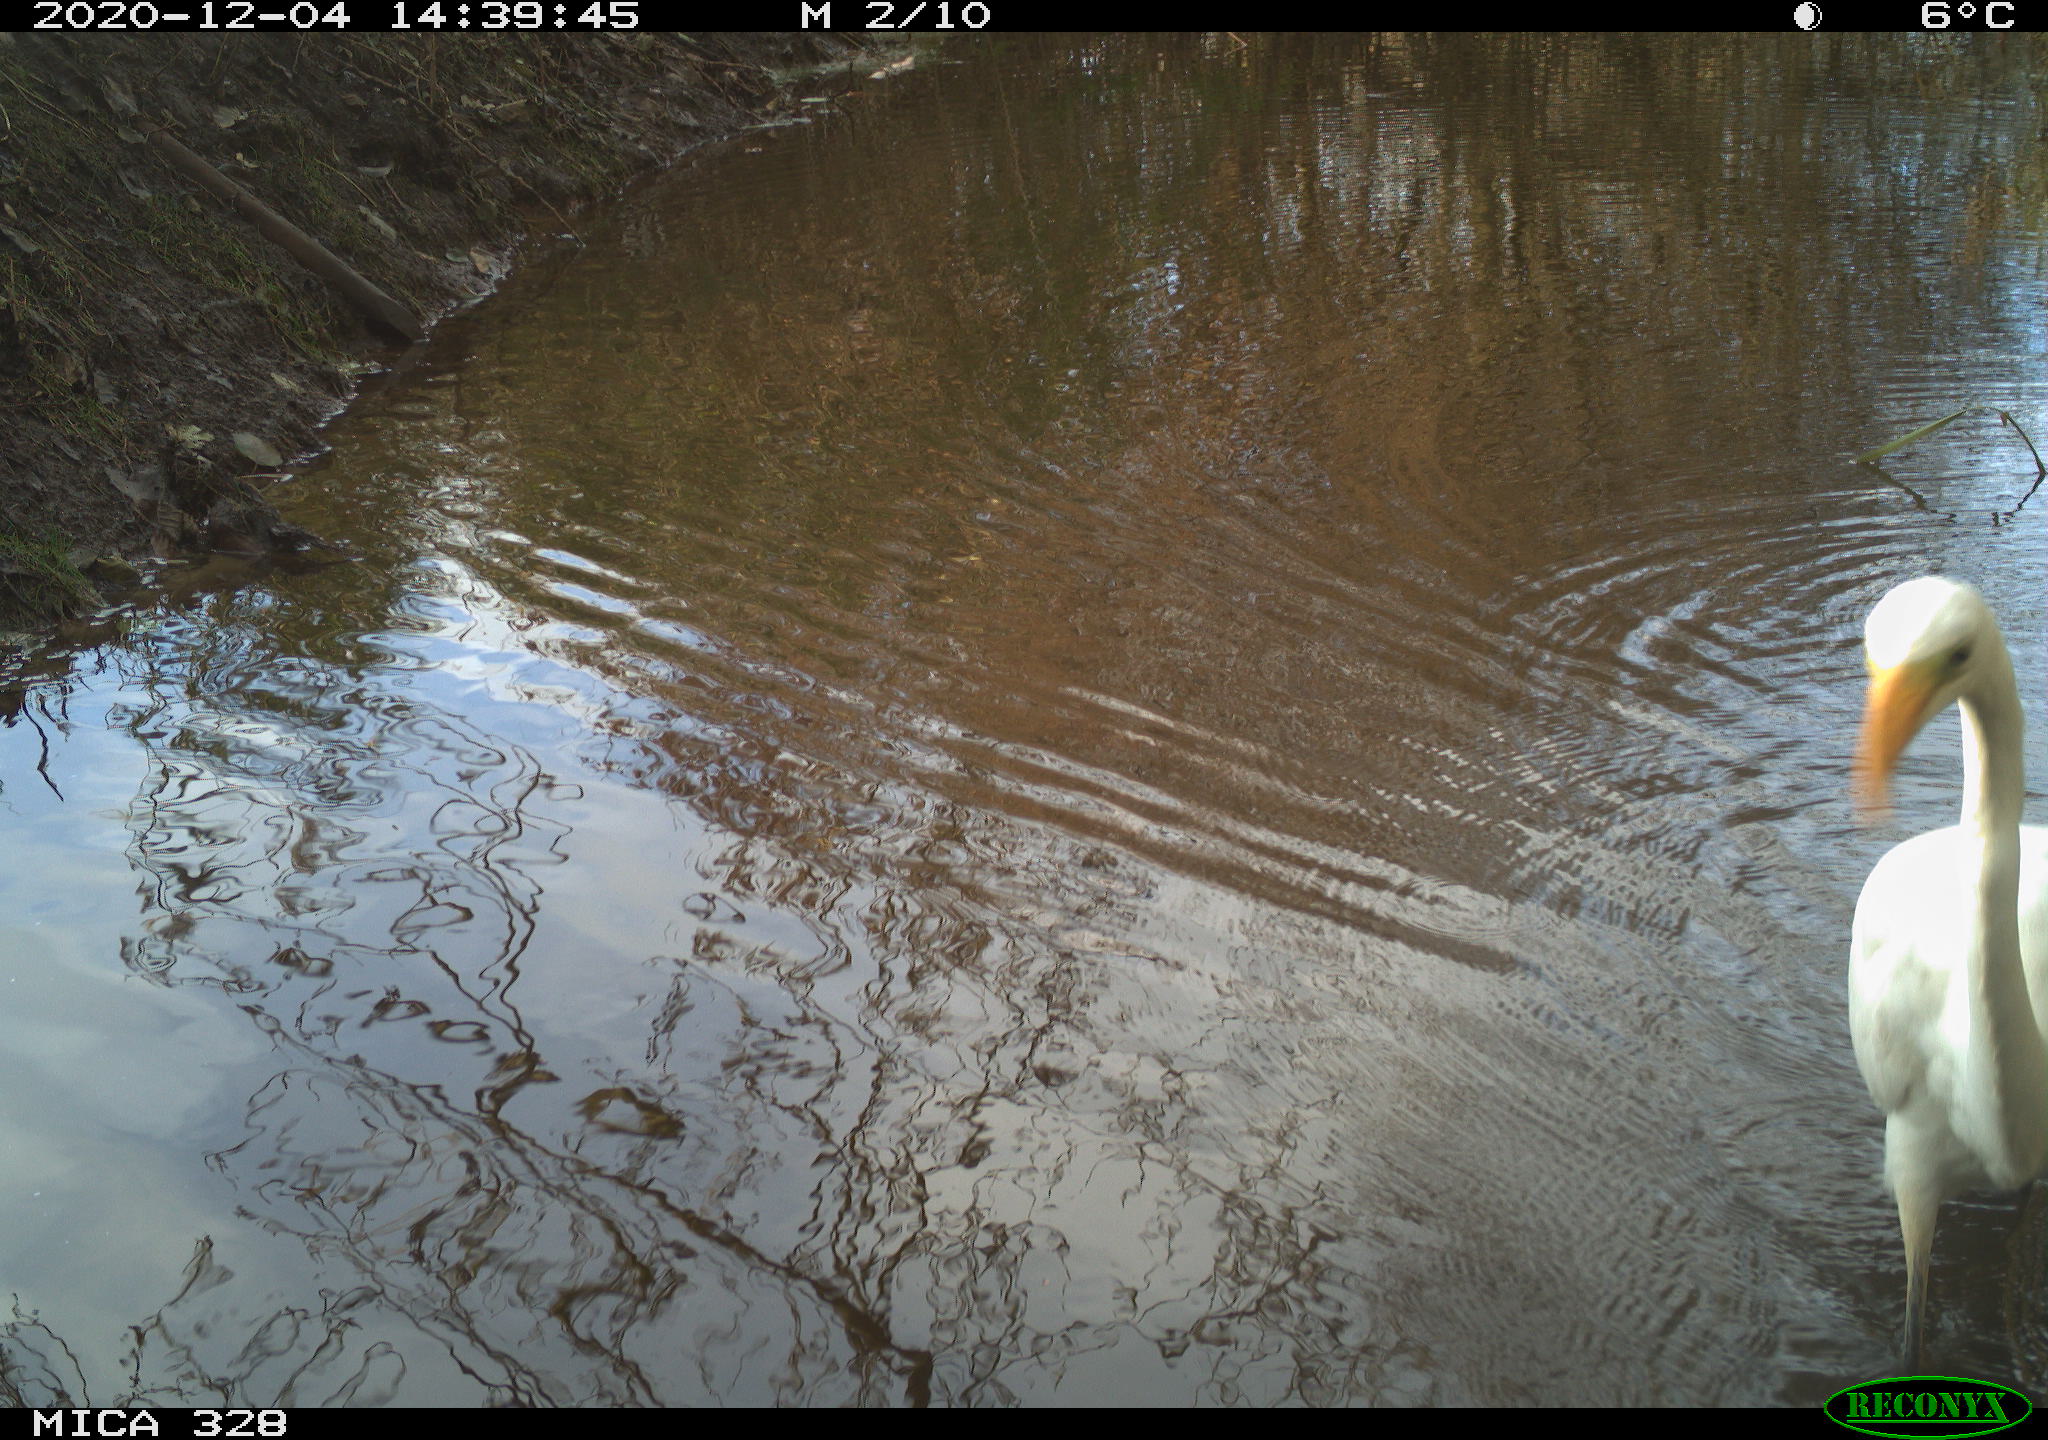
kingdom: Animalia
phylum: Chordata
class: Aves
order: Pelecaniformes
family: Ardeidae
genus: Ardea
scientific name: Ardea alba
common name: Great egret
